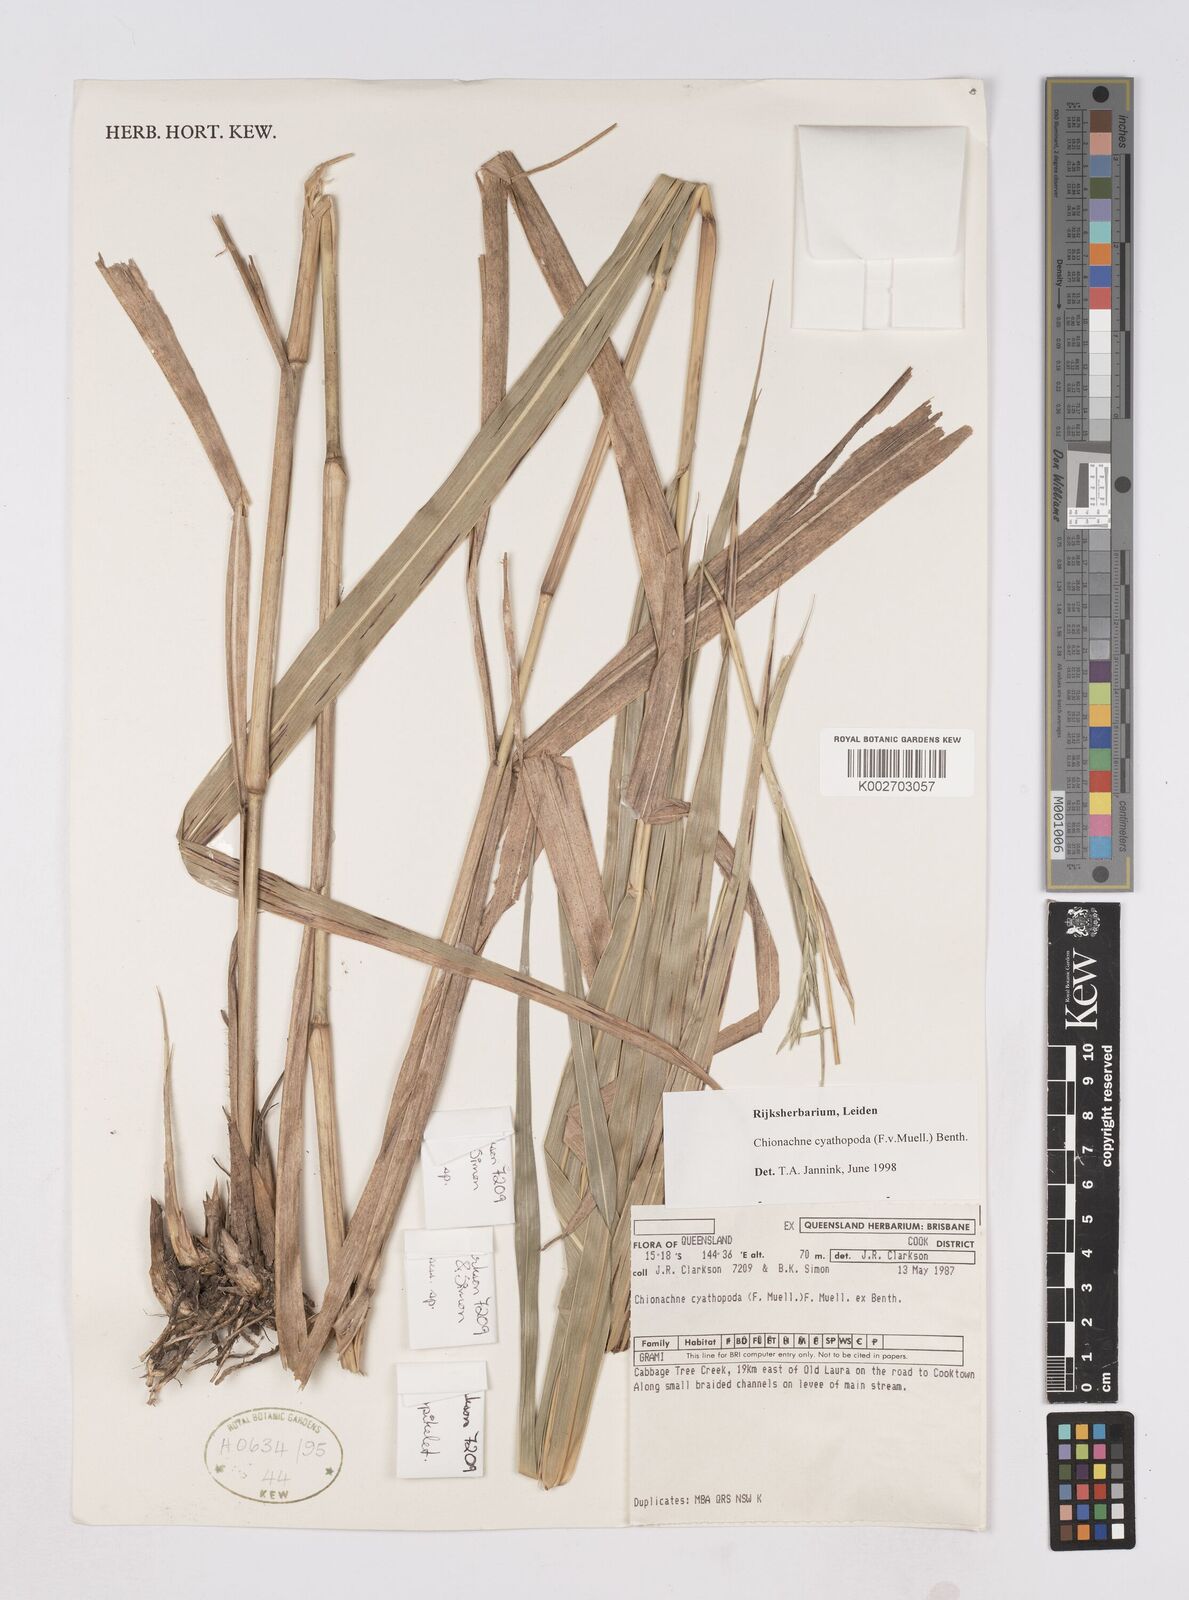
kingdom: Plantae
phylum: Tracheophyta
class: Liliopsida
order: Poales
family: Poaceae
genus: Polytoca
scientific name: Polytoca cyathopoda
